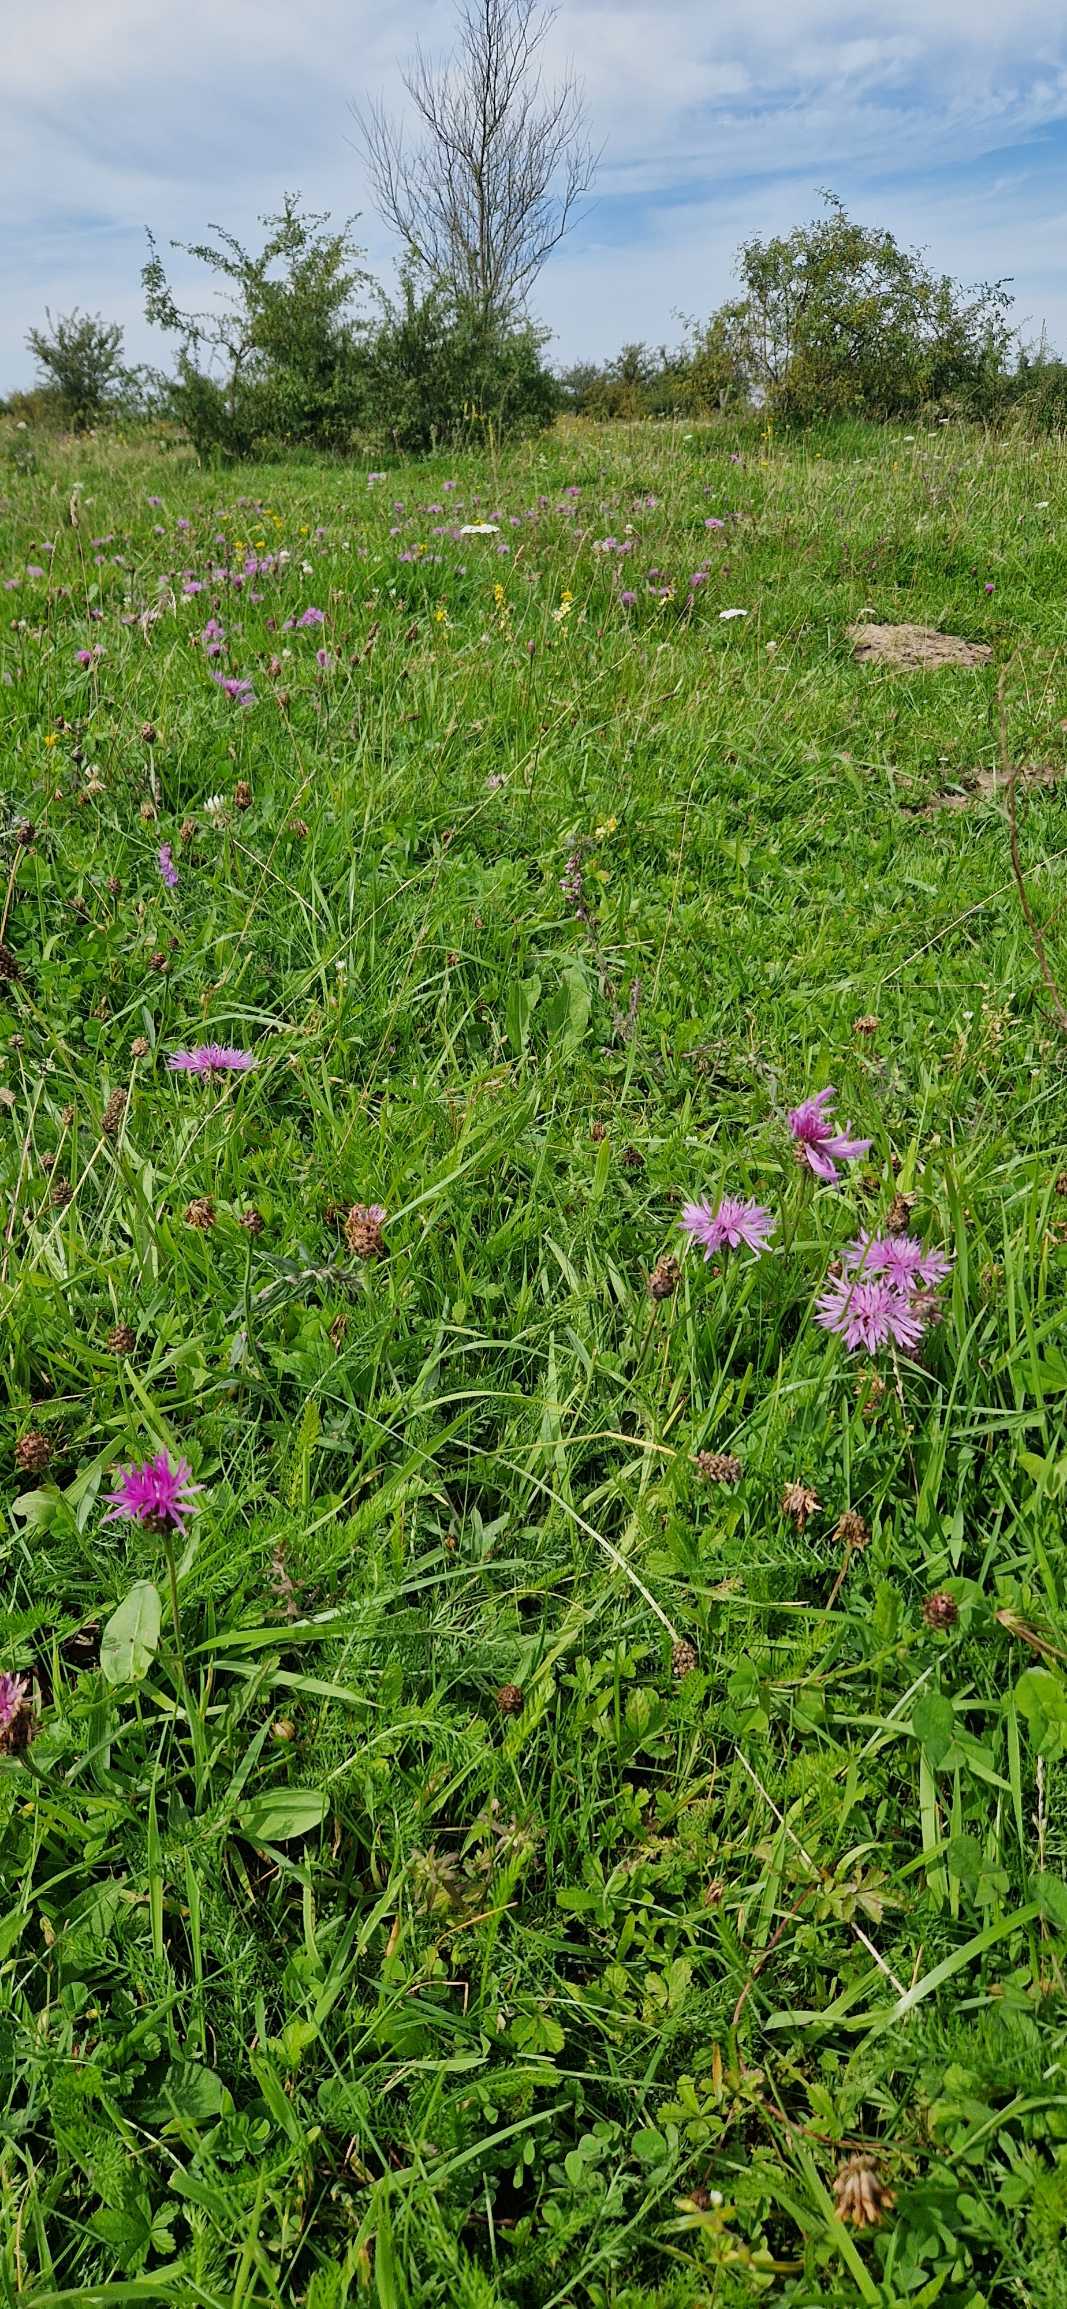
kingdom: Plantae
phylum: Tracheophyta
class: Magnoliopsida
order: Asterales
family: Asteraceae
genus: Centaurea
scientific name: Centaurea jacea
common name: Almindelig knopurt
